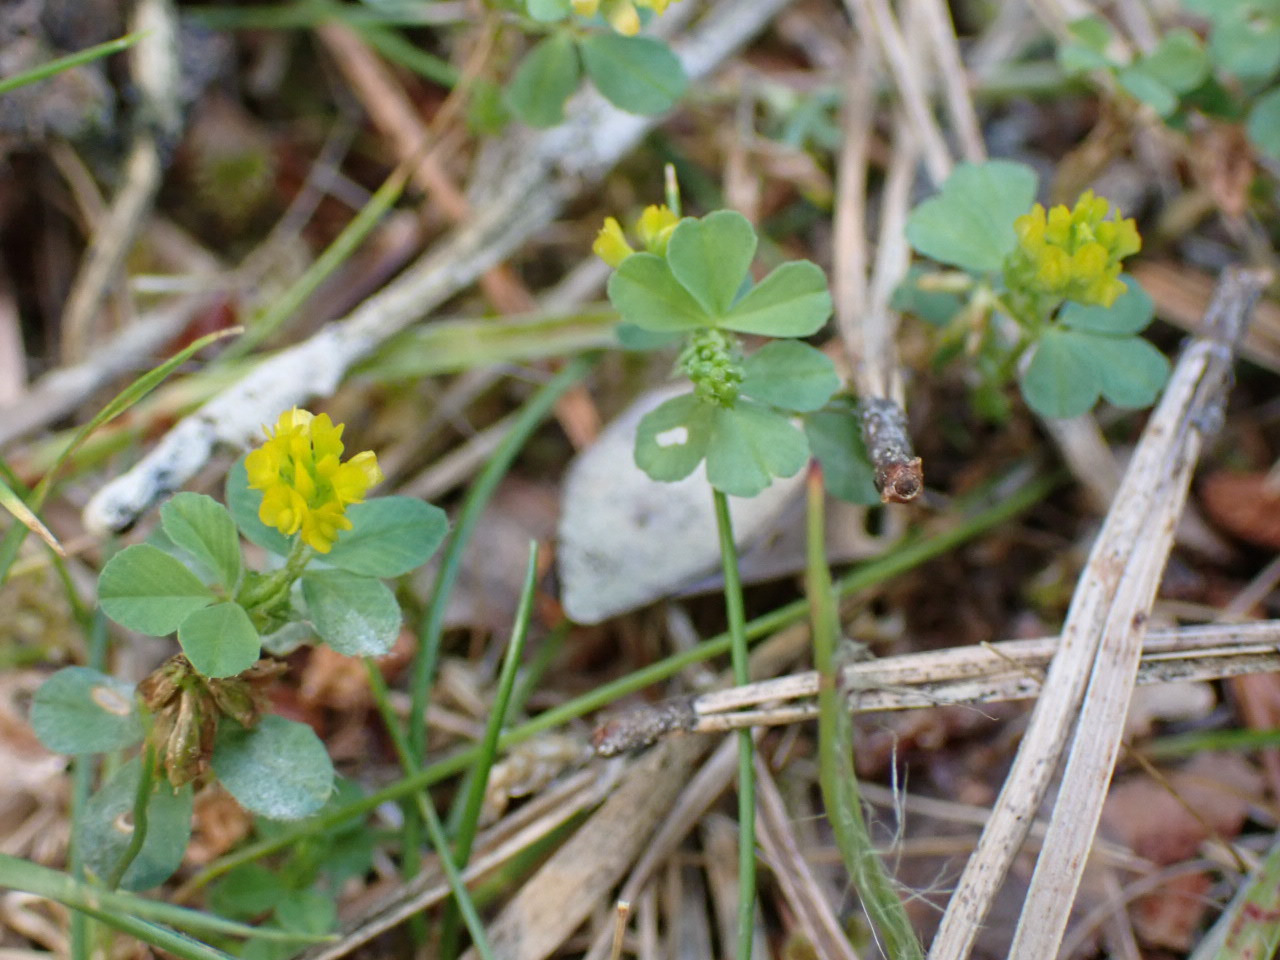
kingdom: Plantae
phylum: Tracheophyta
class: Magnoliopsida
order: Fabales
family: Fabaceae
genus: Trifolium
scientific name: Trifolium dubium
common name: Fin kløver
